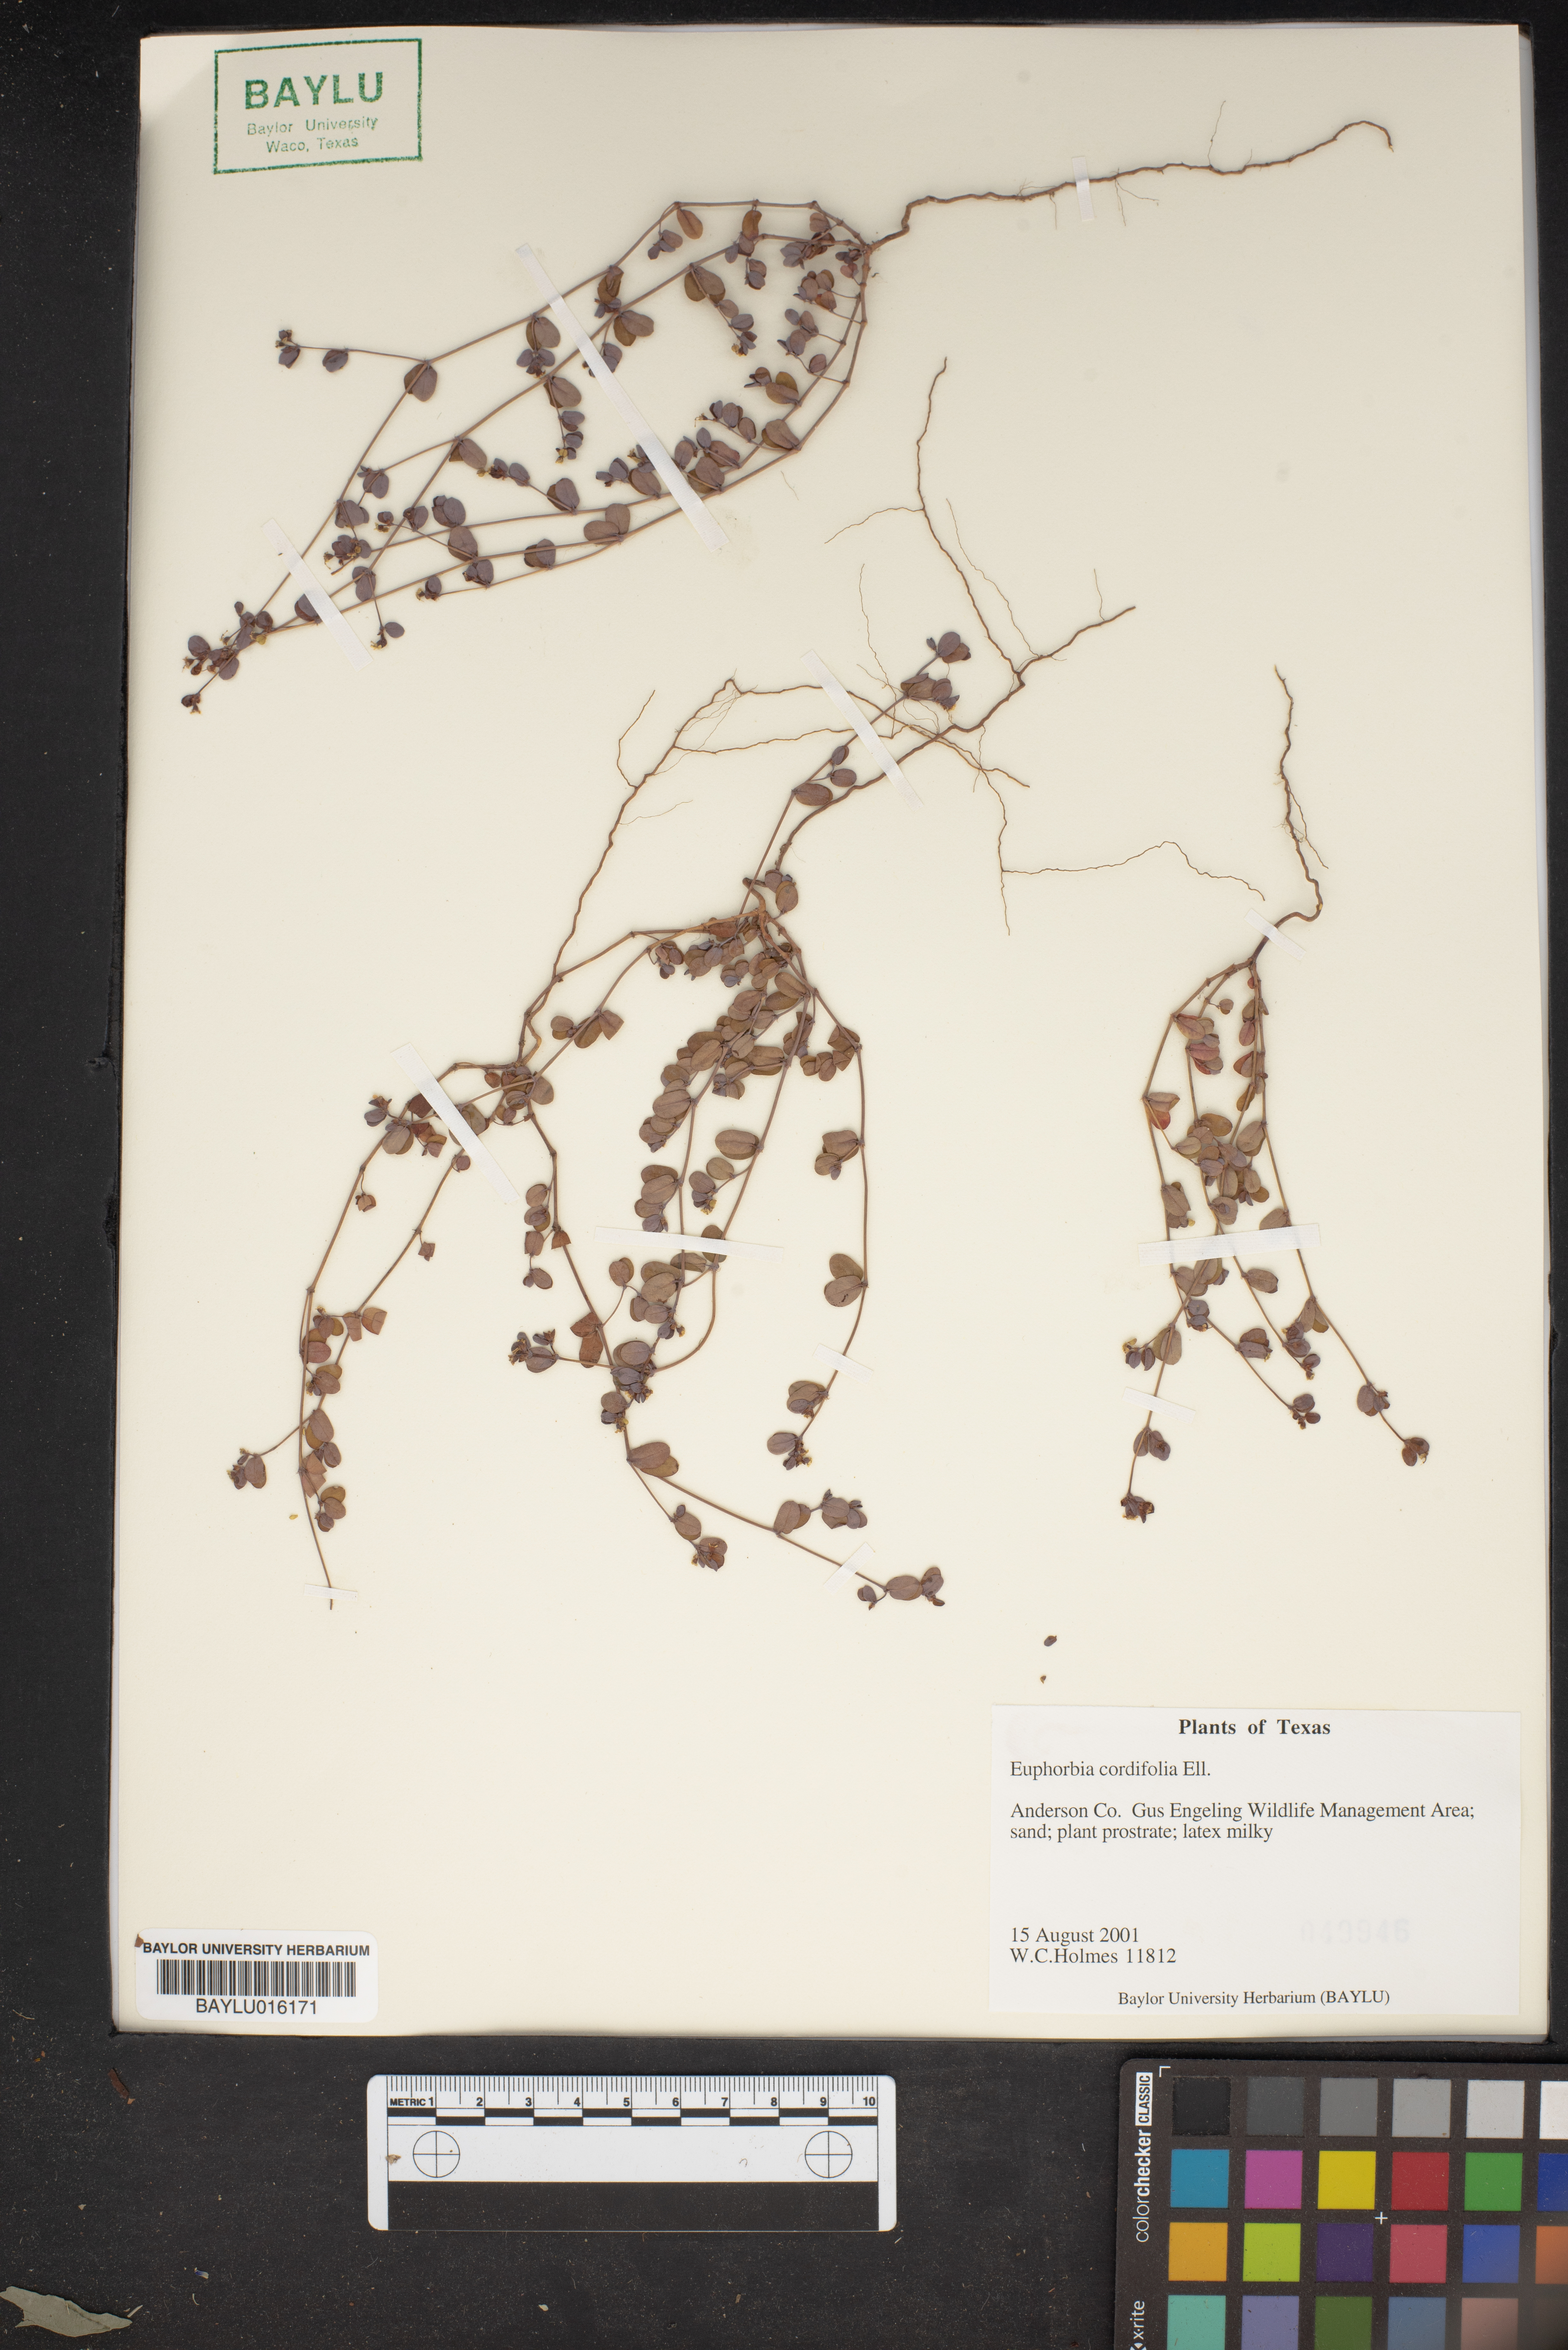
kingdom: Plantae
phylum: Tracheophyta
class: Magnoliopsida
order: Malpighiales
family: Euphorbiaceae
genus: Euphorbia
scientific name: Euphorbia cordifolia
